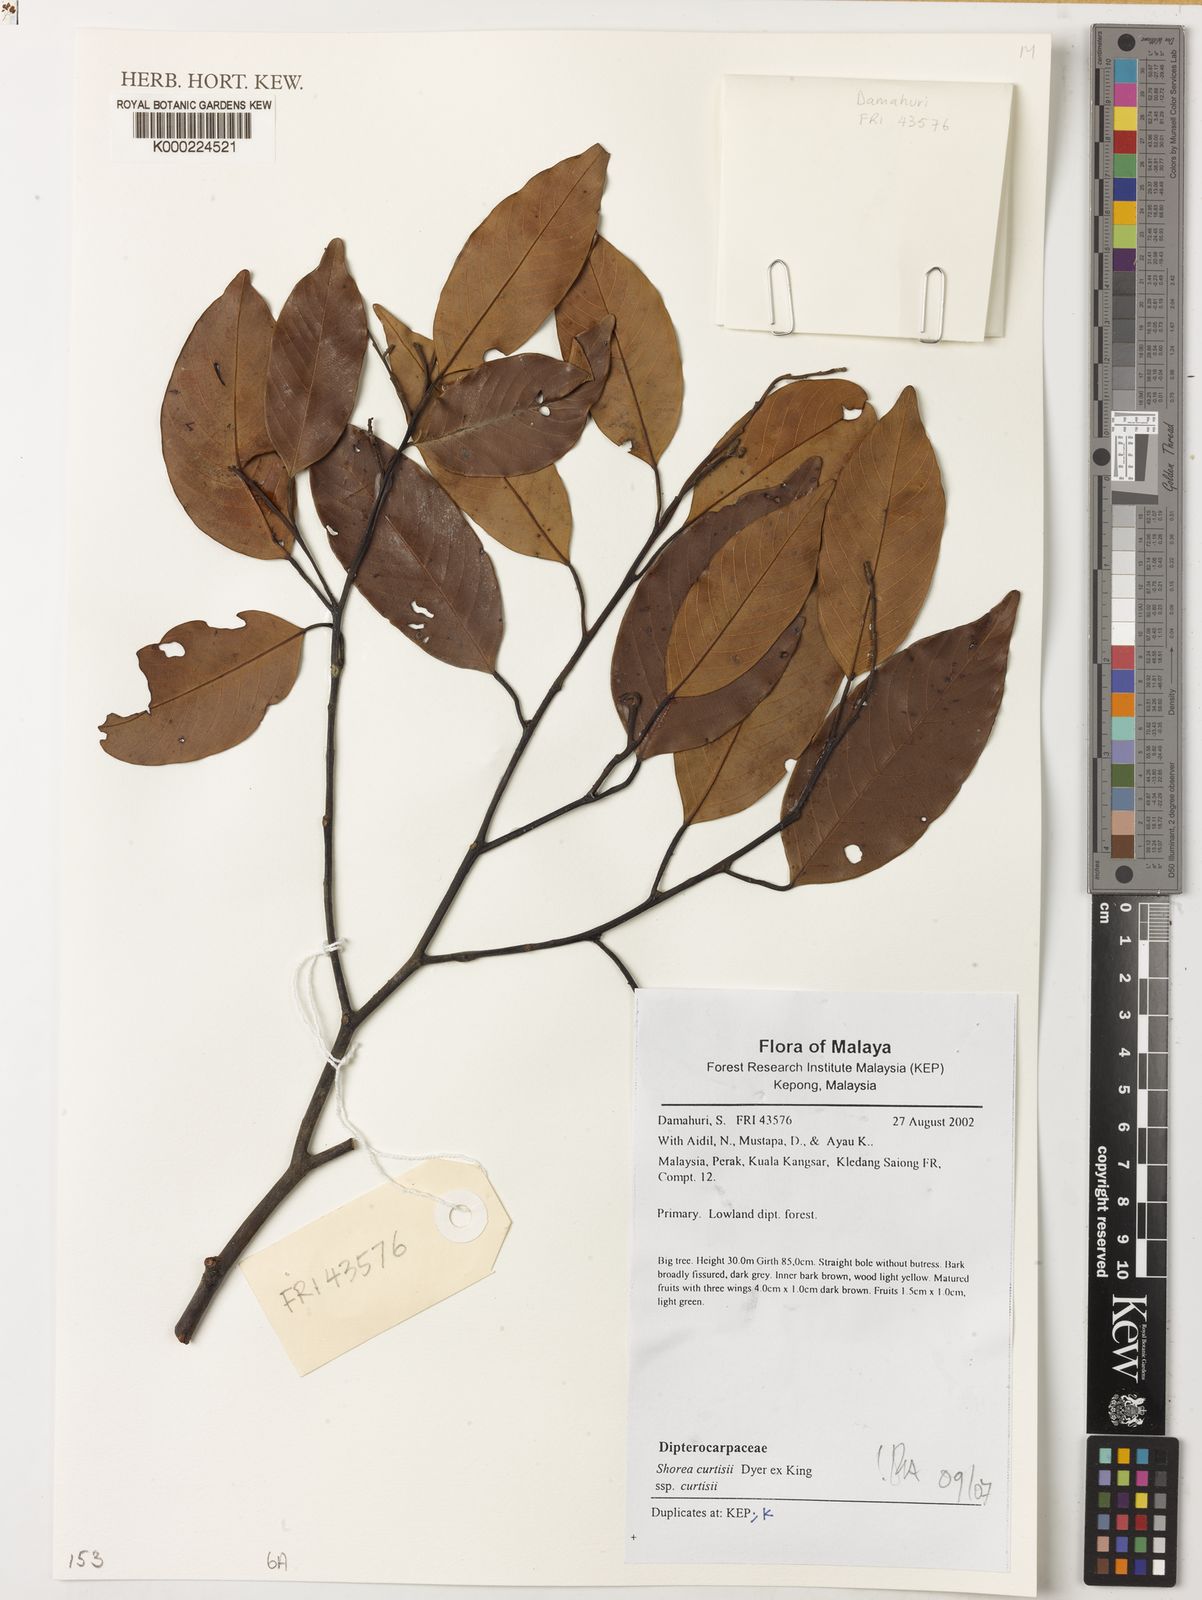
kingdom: Plantae
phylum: Tracheophyta
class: Magnoliopsida
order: Malvales
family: Dipterocarpaceae
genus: Shorea
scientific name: Shorea curtisii
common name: Dark red meranti
